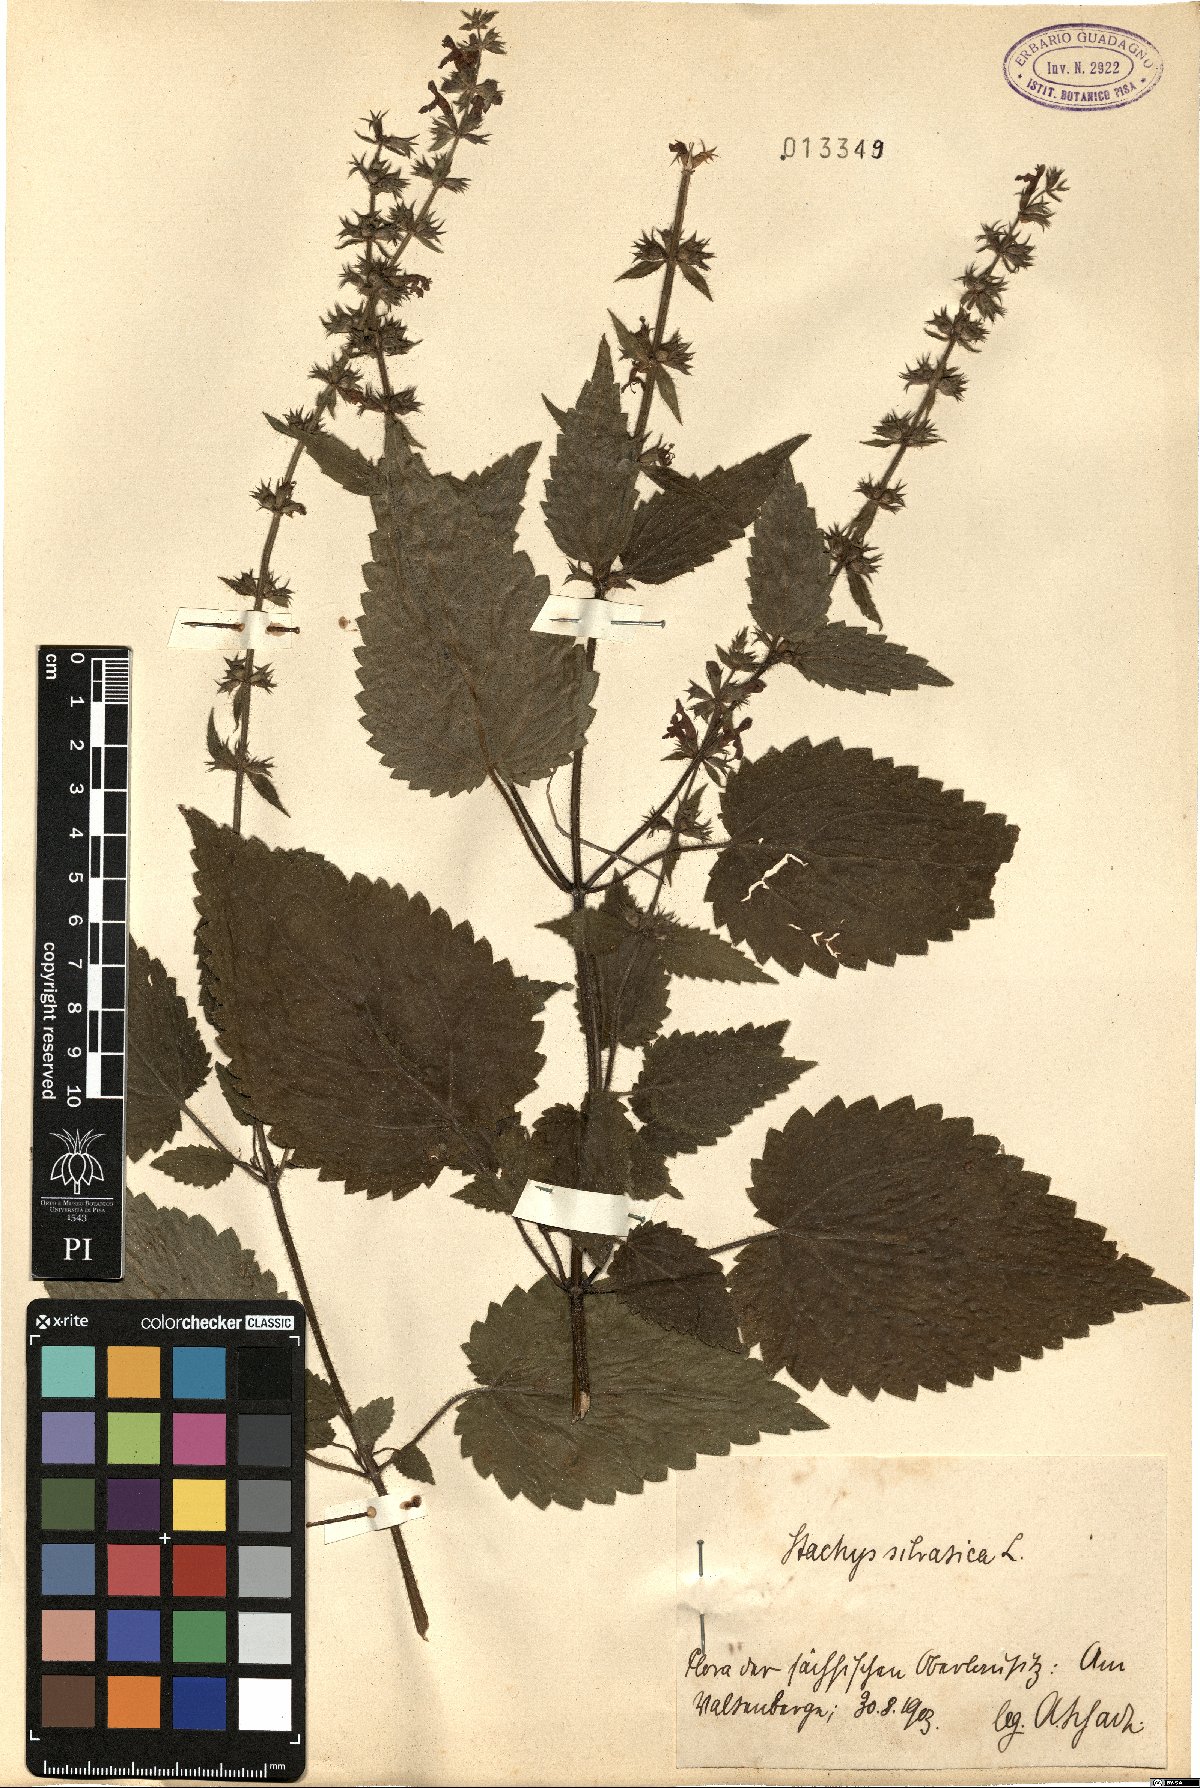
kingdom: Plantae
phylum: Tracheophyta
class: Magnoliopsida
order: Lamiales
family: Lamiaceae
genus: Stachys
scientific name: Stachys sylvatica
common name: Hedge woundwort
